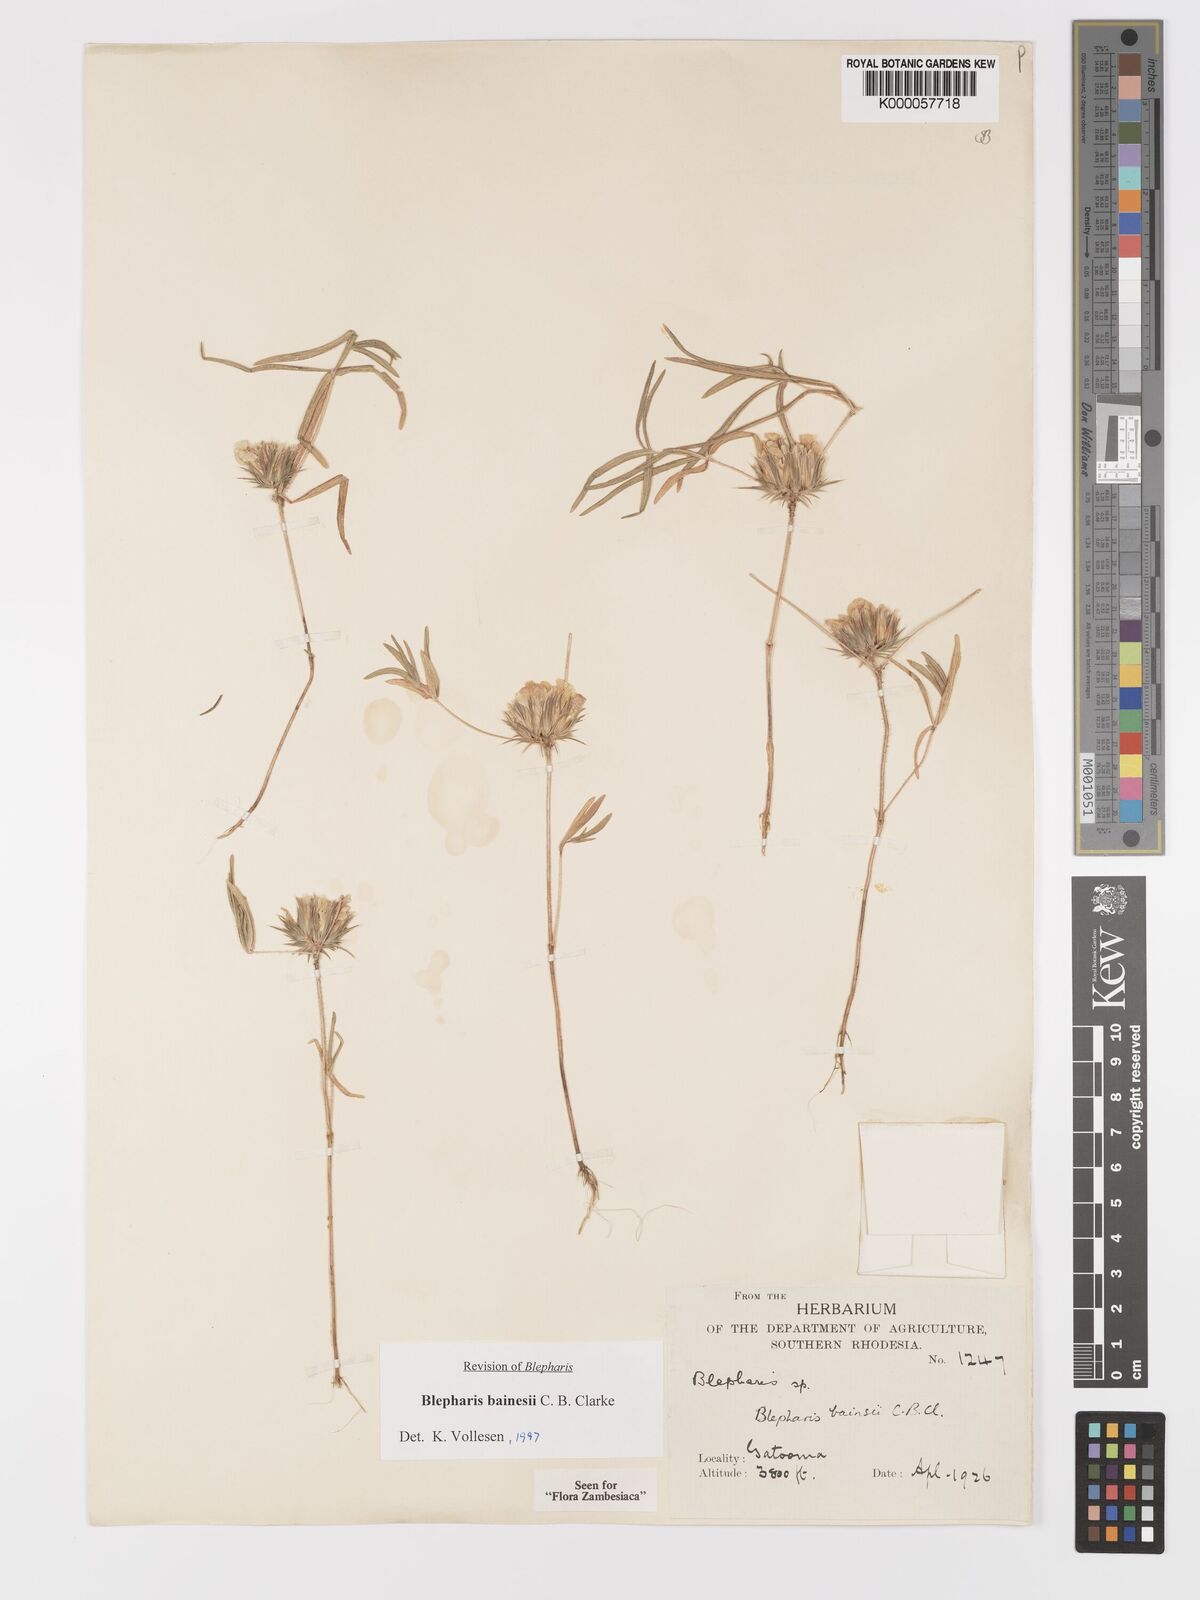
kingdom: Plantae
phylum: Tracheophyta
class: Magnoliopsida
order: Lamiales
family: Acanthaceae
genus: Blepharis
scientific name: Blepharis bainesii
